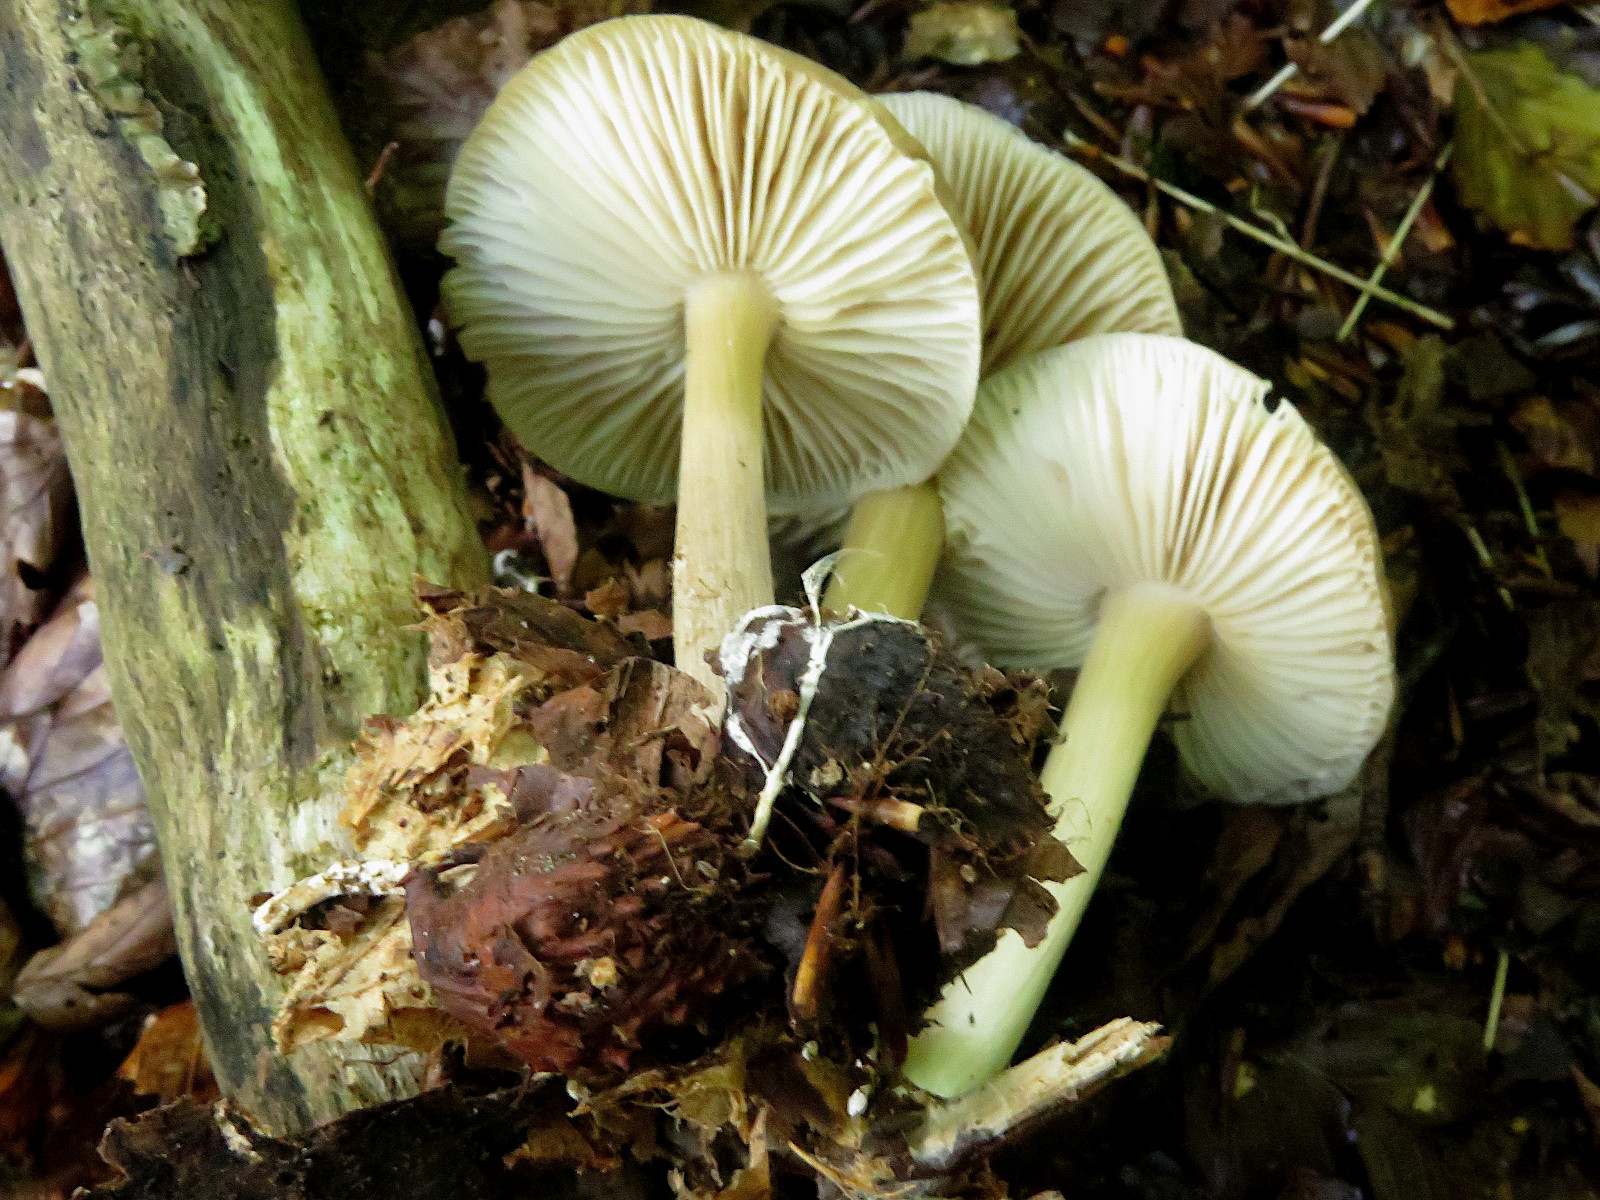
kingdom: Fungi
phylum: Basidiomycota
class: Agaricomycetes
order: Agaricales
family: Tricholomataceae
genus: Megacollybia
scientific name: Megacollybia platyphylla
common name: bredbladet væbnerhat
